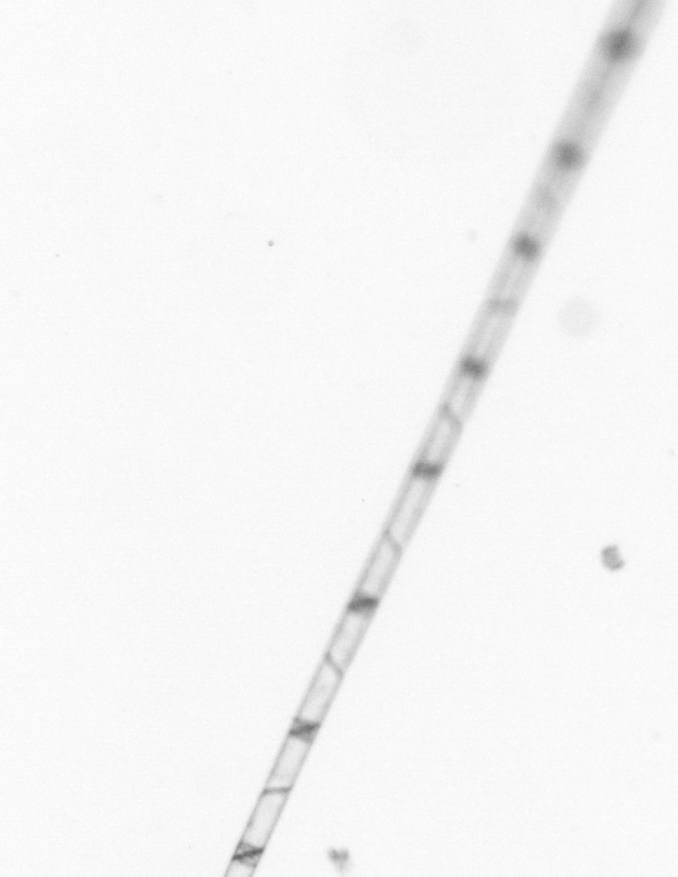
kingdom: Chromista
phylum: Ochrophyta
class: Bacillariophyceae
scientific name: Bacillariophyceae
